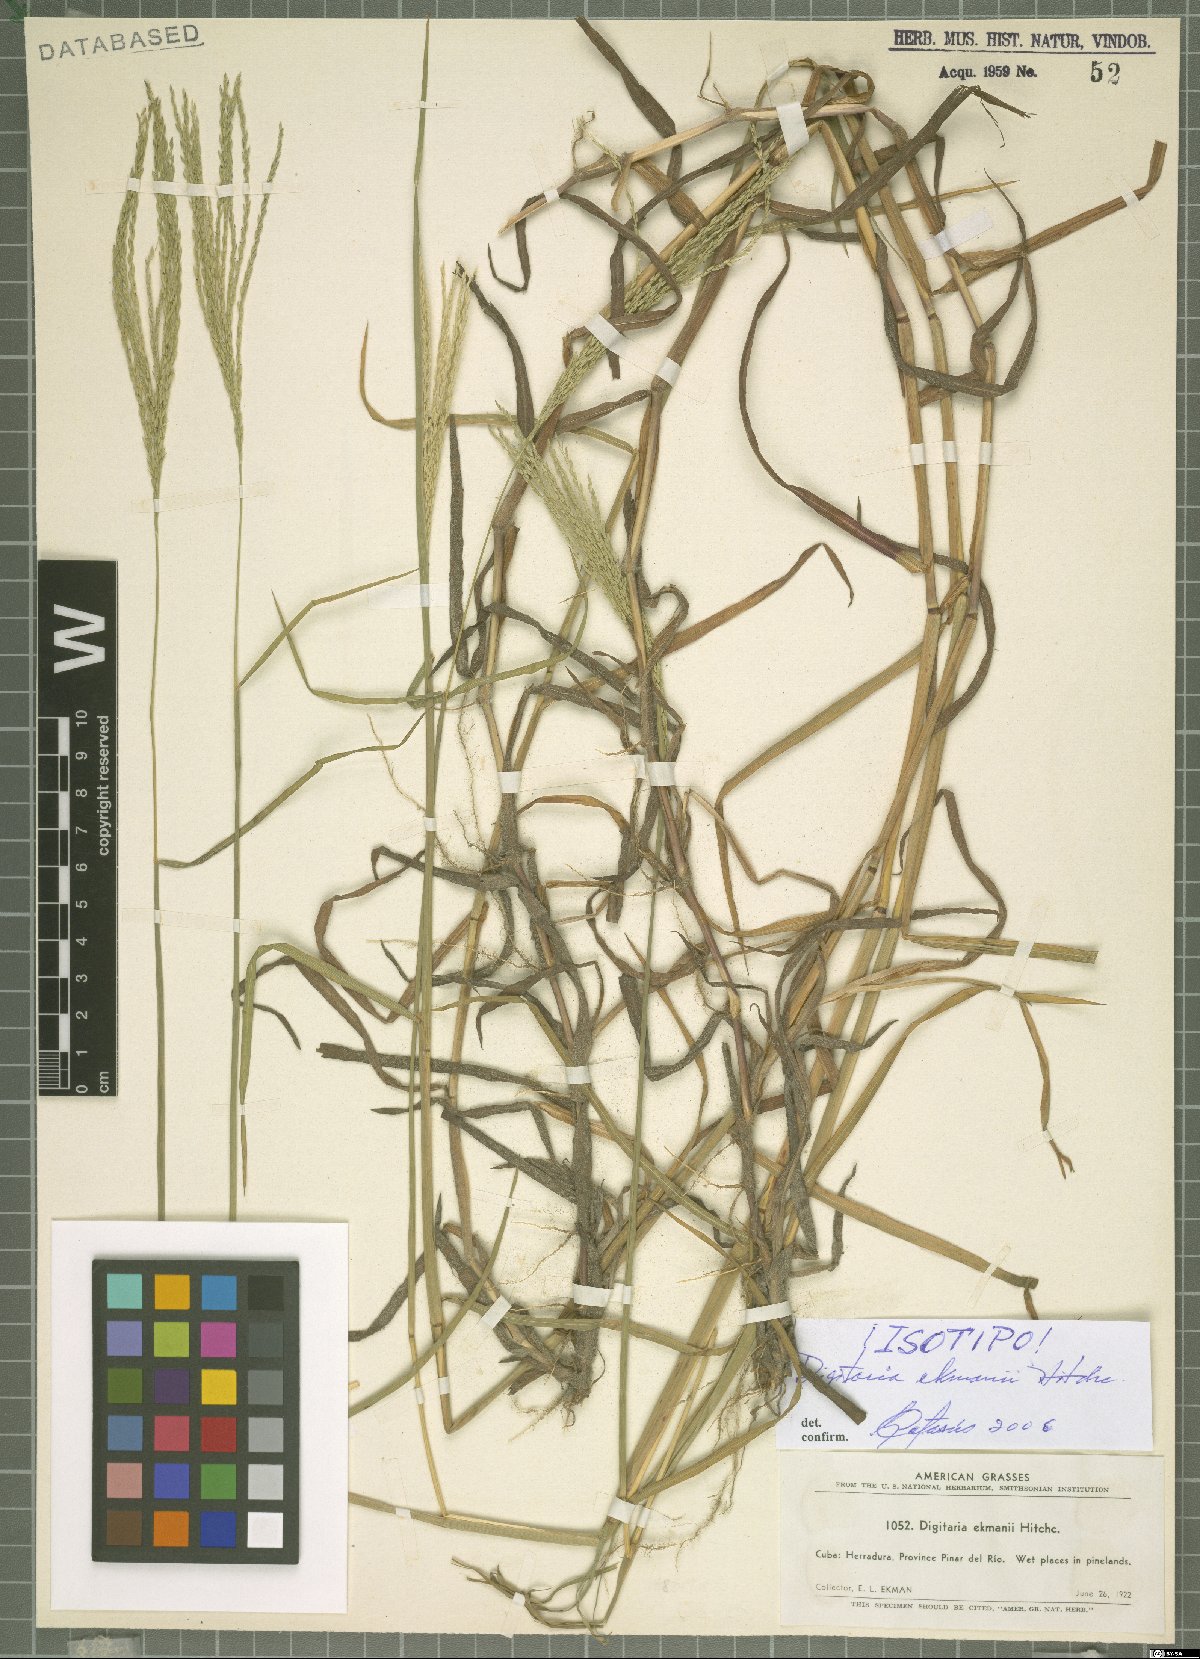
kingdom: Plantae
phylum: Tracheophyta
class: Liliopsida
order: Poales
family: Poaceae
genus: Digitaria
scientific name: Digitaria ekmanii
